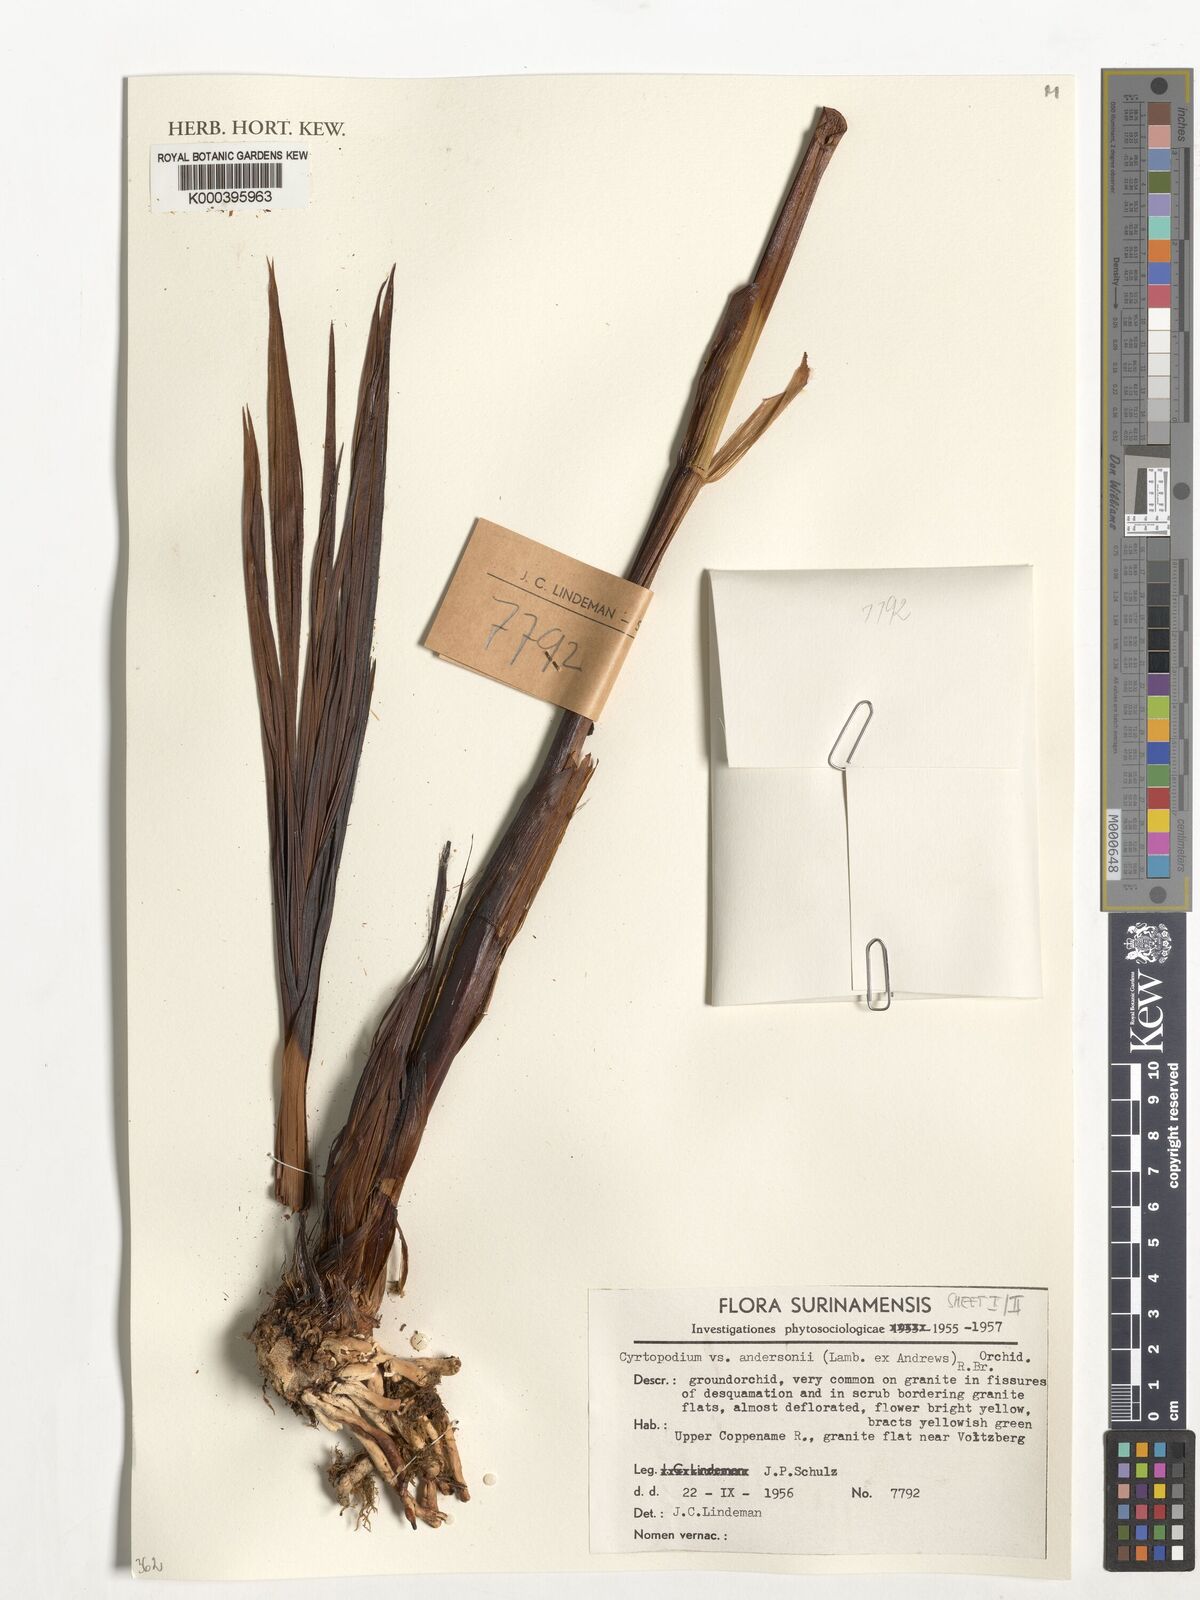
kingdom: Plantae
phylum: Tracheophyta
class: Liliopsida
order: Asparagales
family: Orchidaceae
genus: Cyrtopodium
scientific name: Cyrtopodium andersonii
